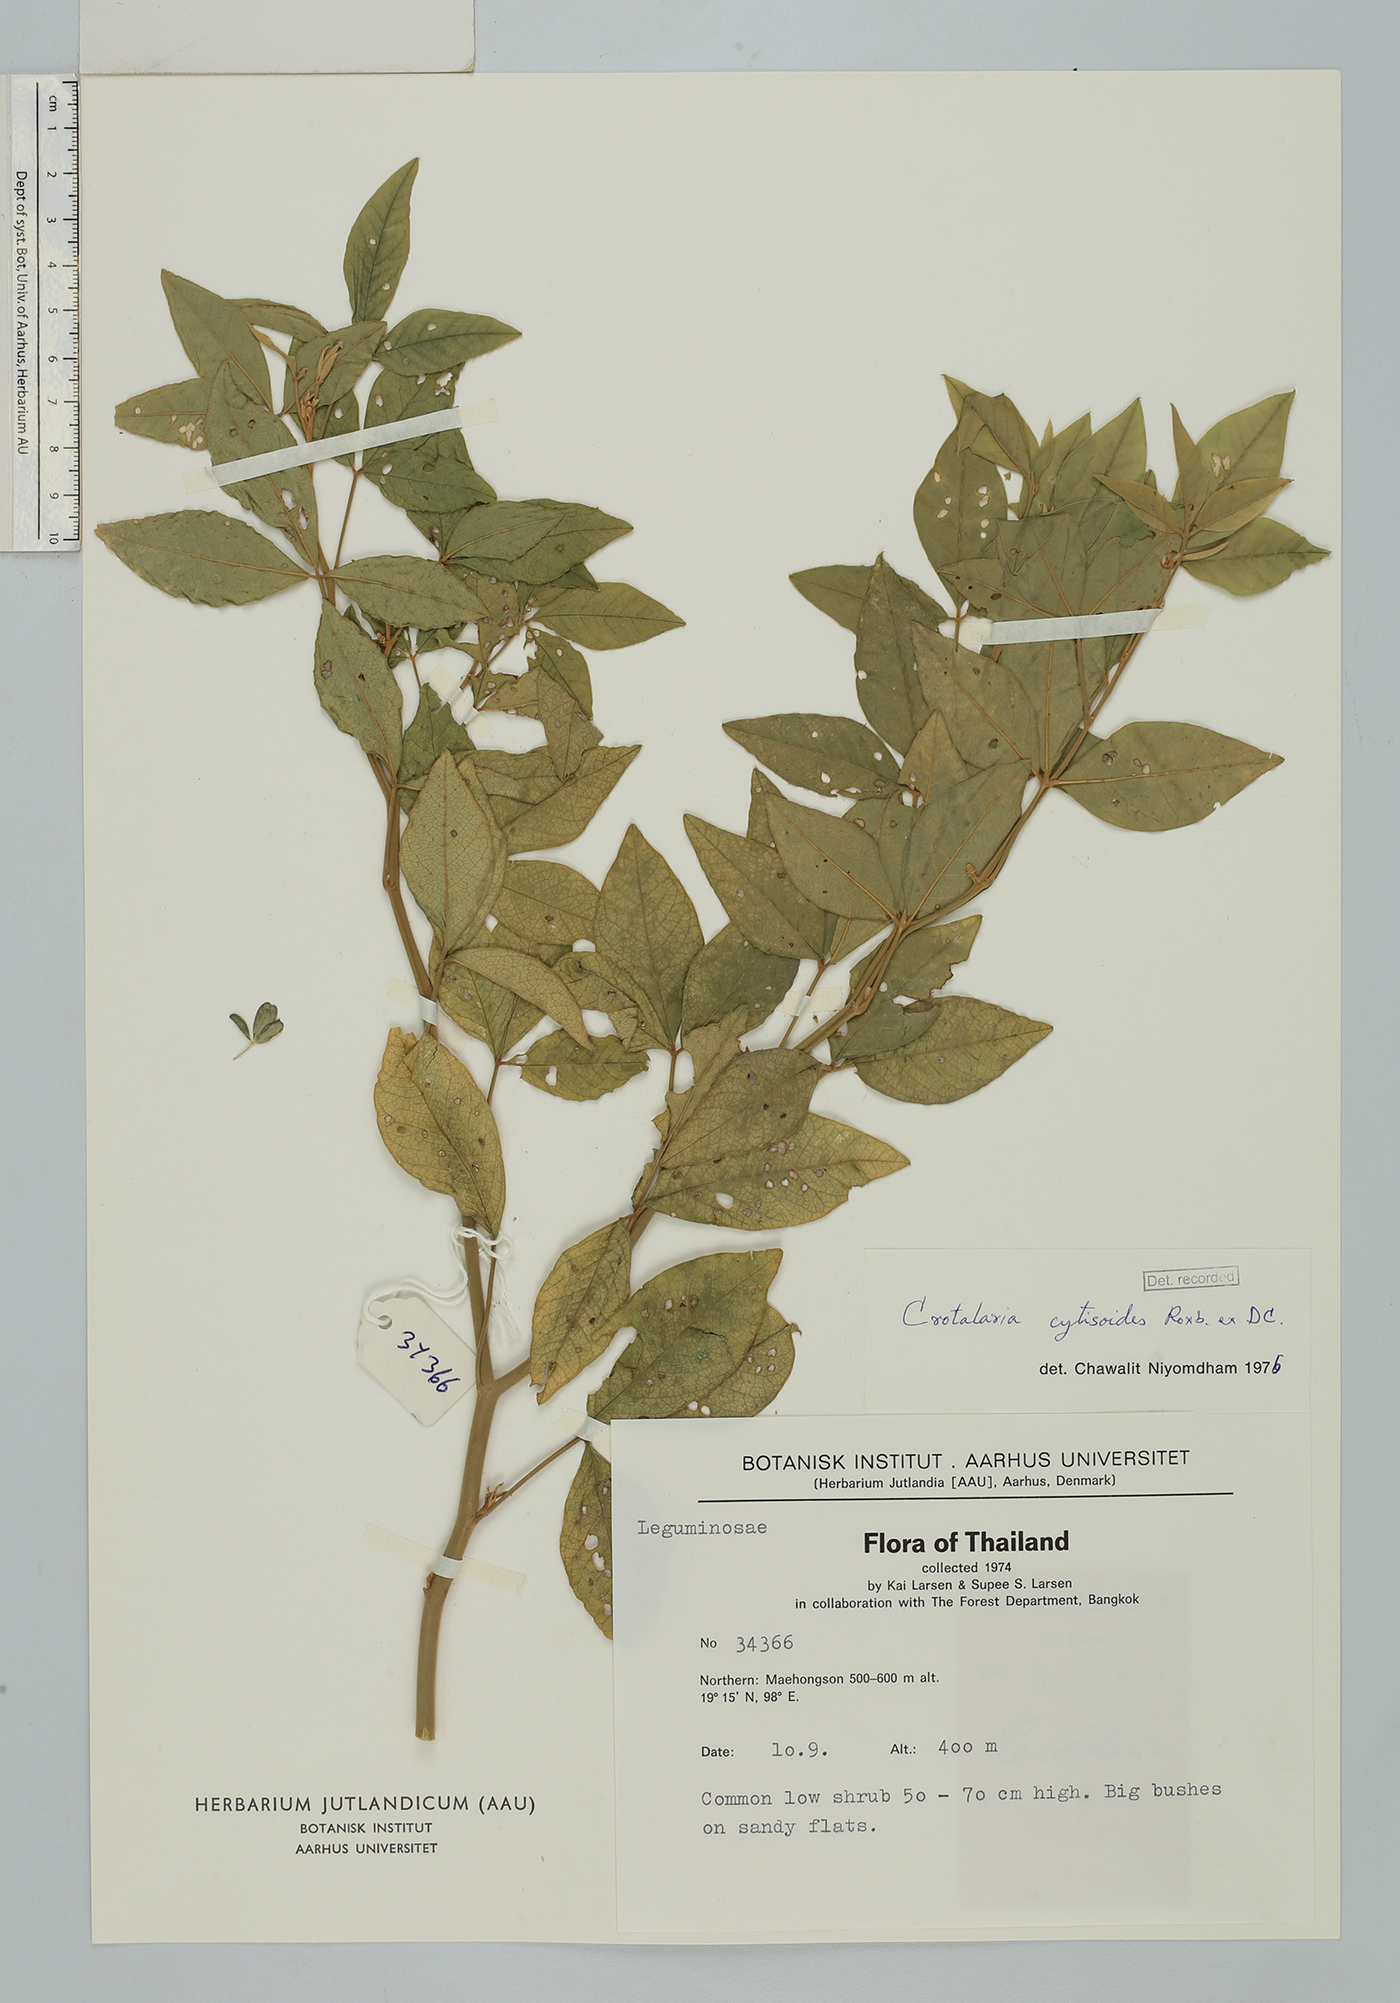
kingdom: Plantae
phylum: Tracheophyta
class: Magnoliopsida
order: Fabales
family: Fabaceae
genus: Crotalaria
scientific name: Crotalaria cytisoides
